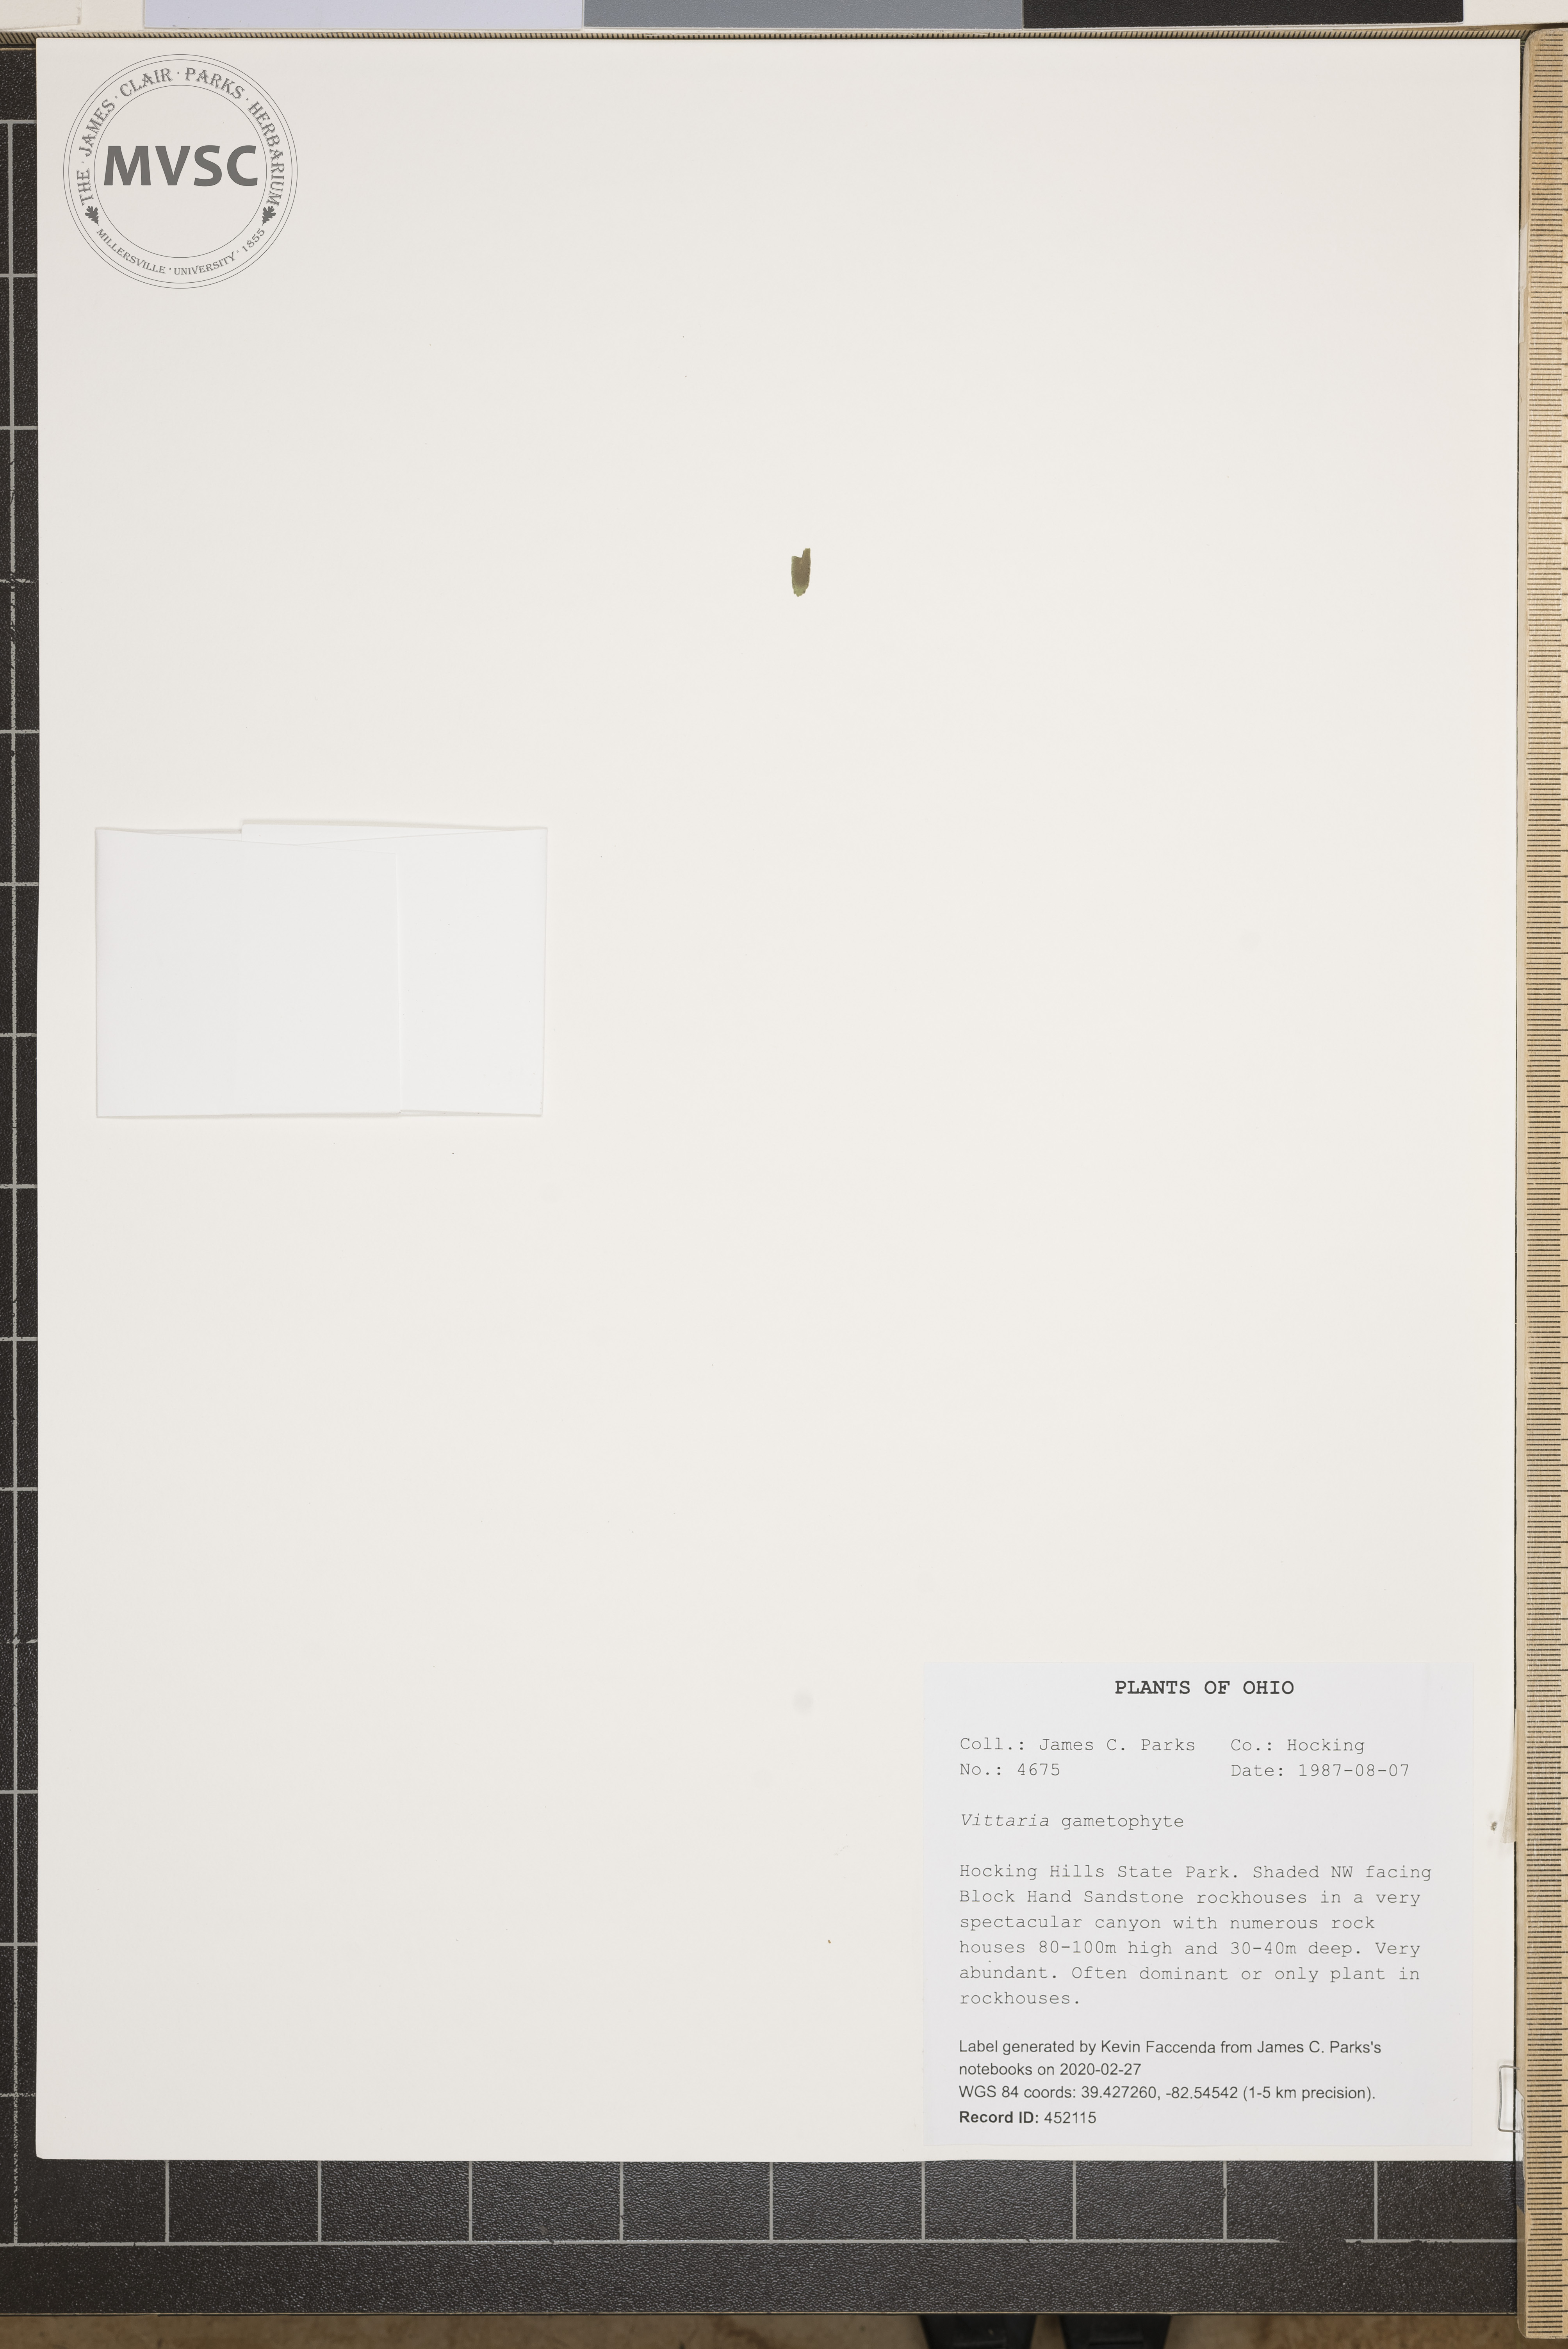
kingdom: Plantae
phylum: Tracheophyta
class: Polypodiopsida
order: Polypodiales
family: Pteridaceae
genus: Vittaria
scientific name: Vittaria
